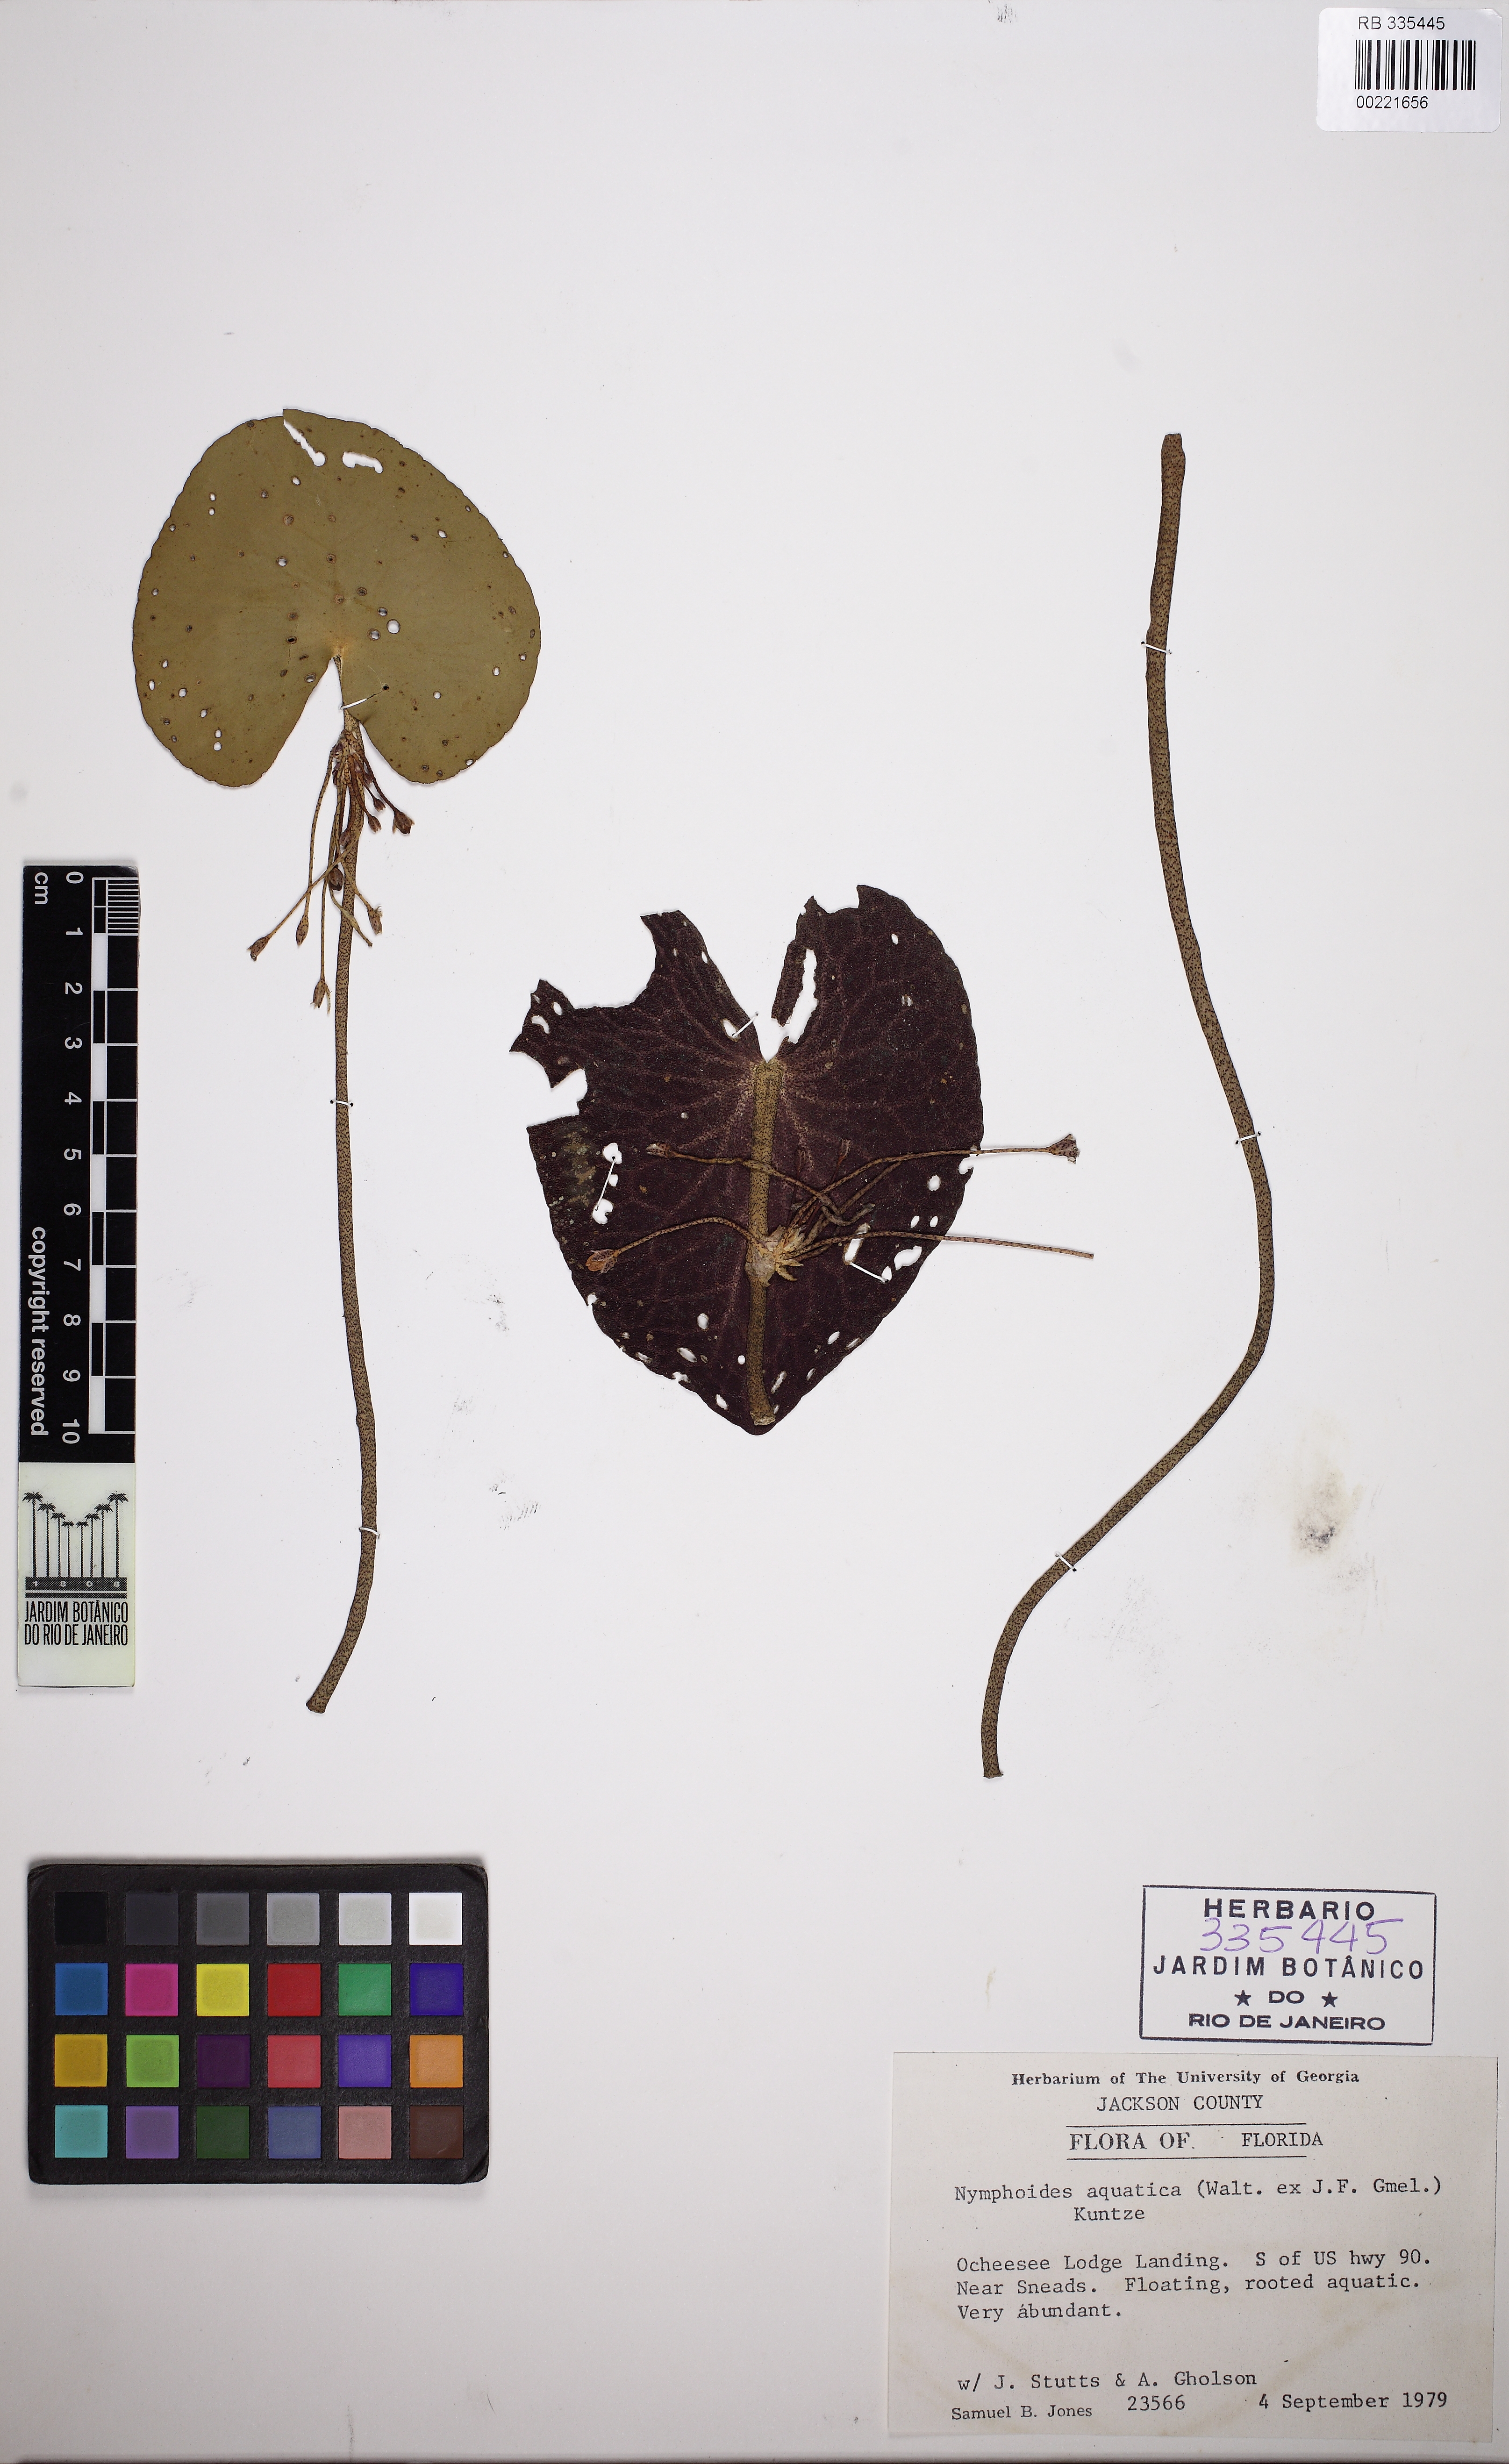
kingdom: Plantae
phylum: Tracheophyta
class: Magnoliopsida
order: Asterales
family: Menyanthaceae
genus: Nymphoides
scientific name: Nymphoides aquatica
